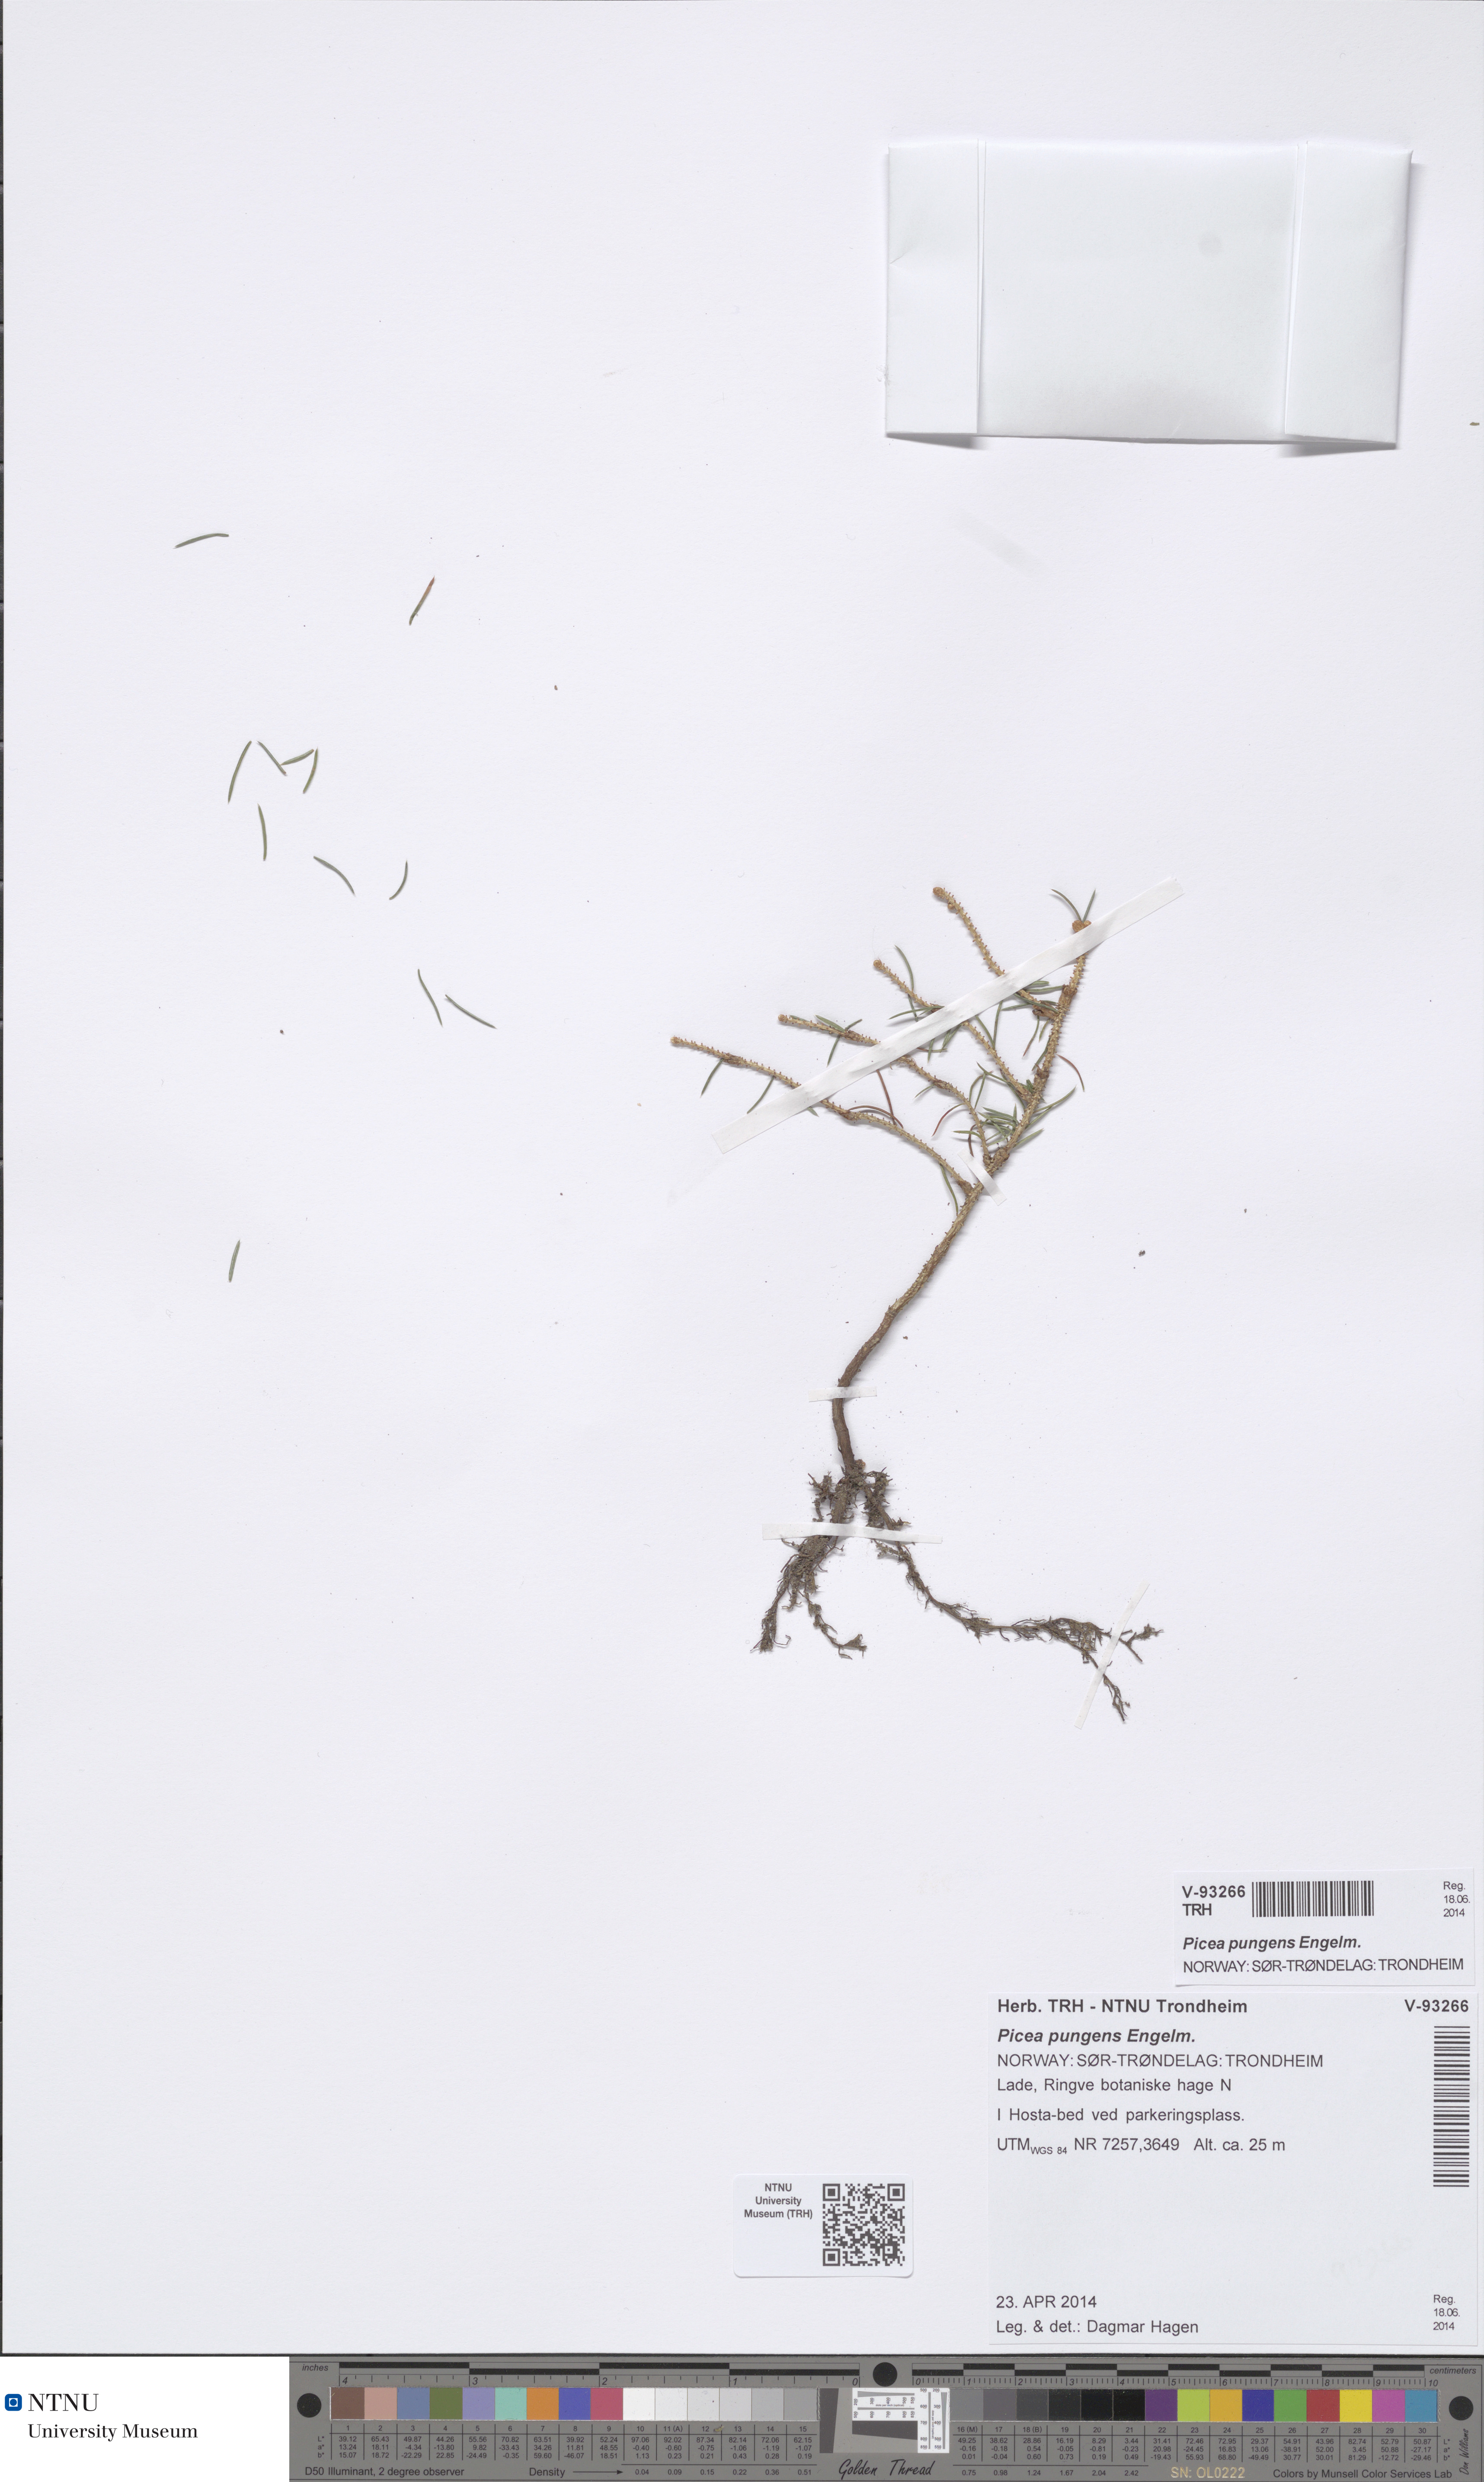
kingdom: Plantae
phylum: Tracheophyta
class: Pinopsida
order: Pinales
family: Pinaceae
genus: Picea
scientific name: Picea pungens
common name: Colorado spruce
